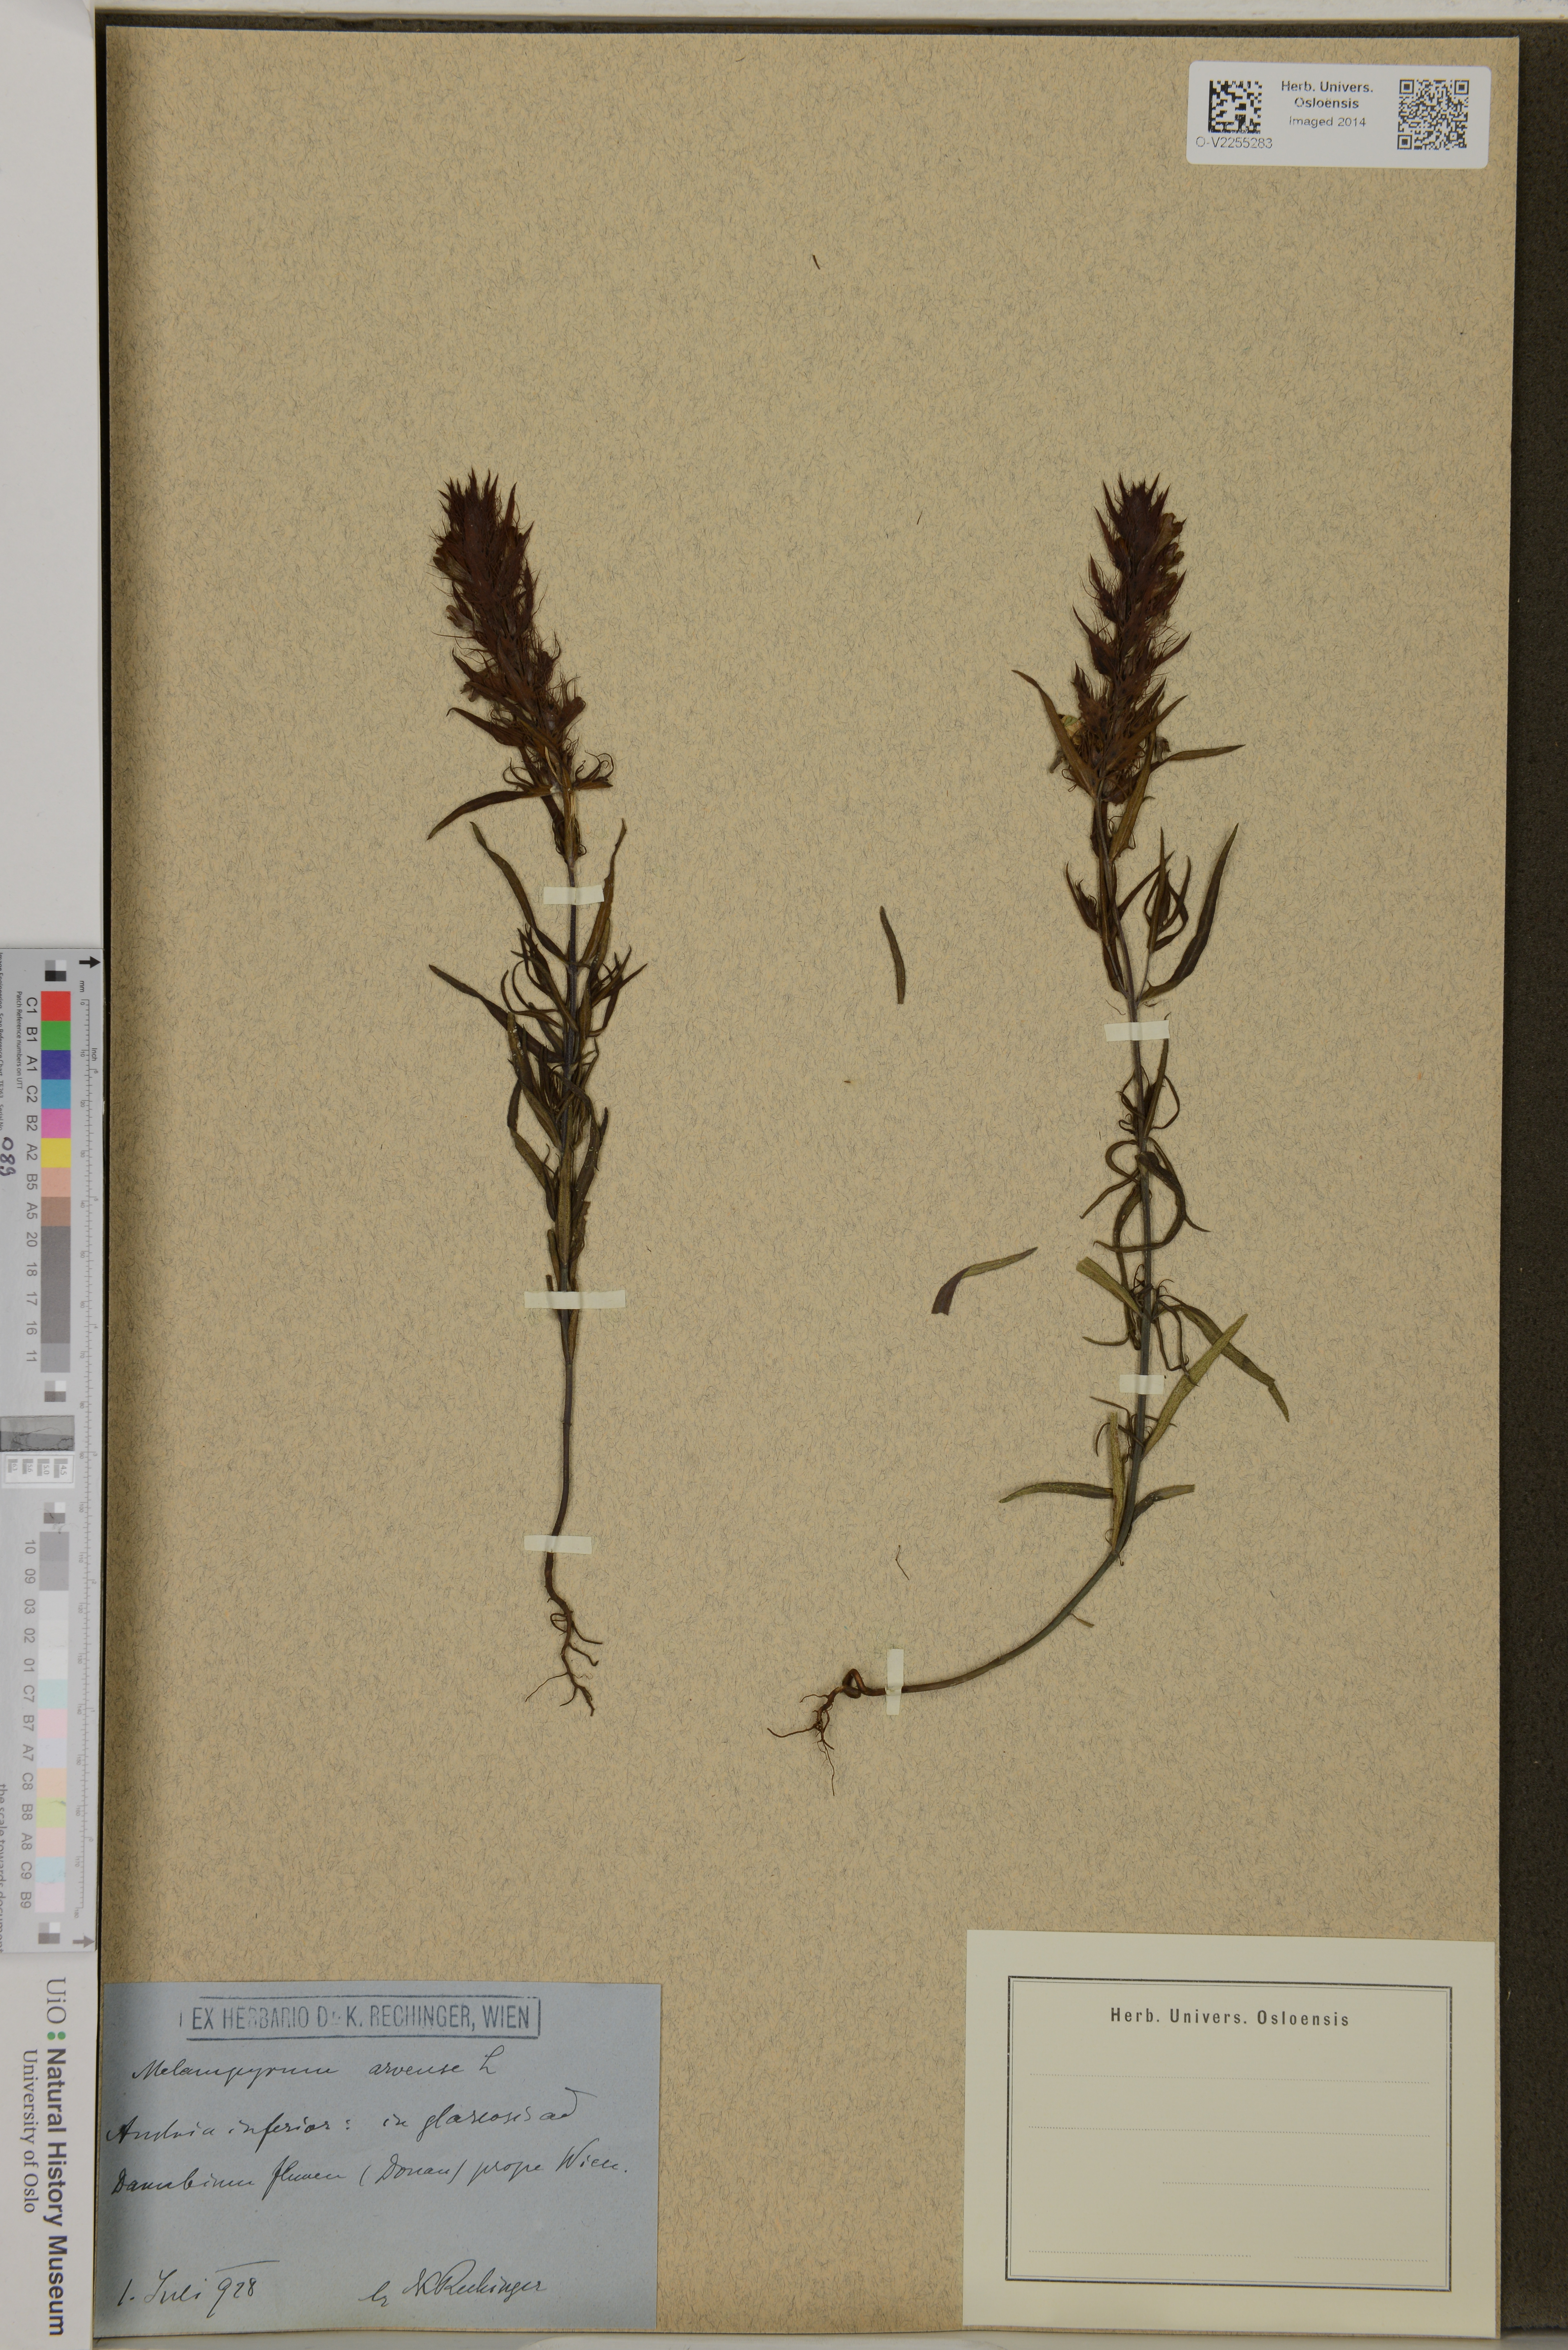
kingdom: Plantae
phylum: Tracheophyta
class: Magnoliopsida
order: Lamiales
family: Orobanchaceae
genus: Melampyrum
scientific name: Melampyrum arvense
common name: Field cow-wheat
